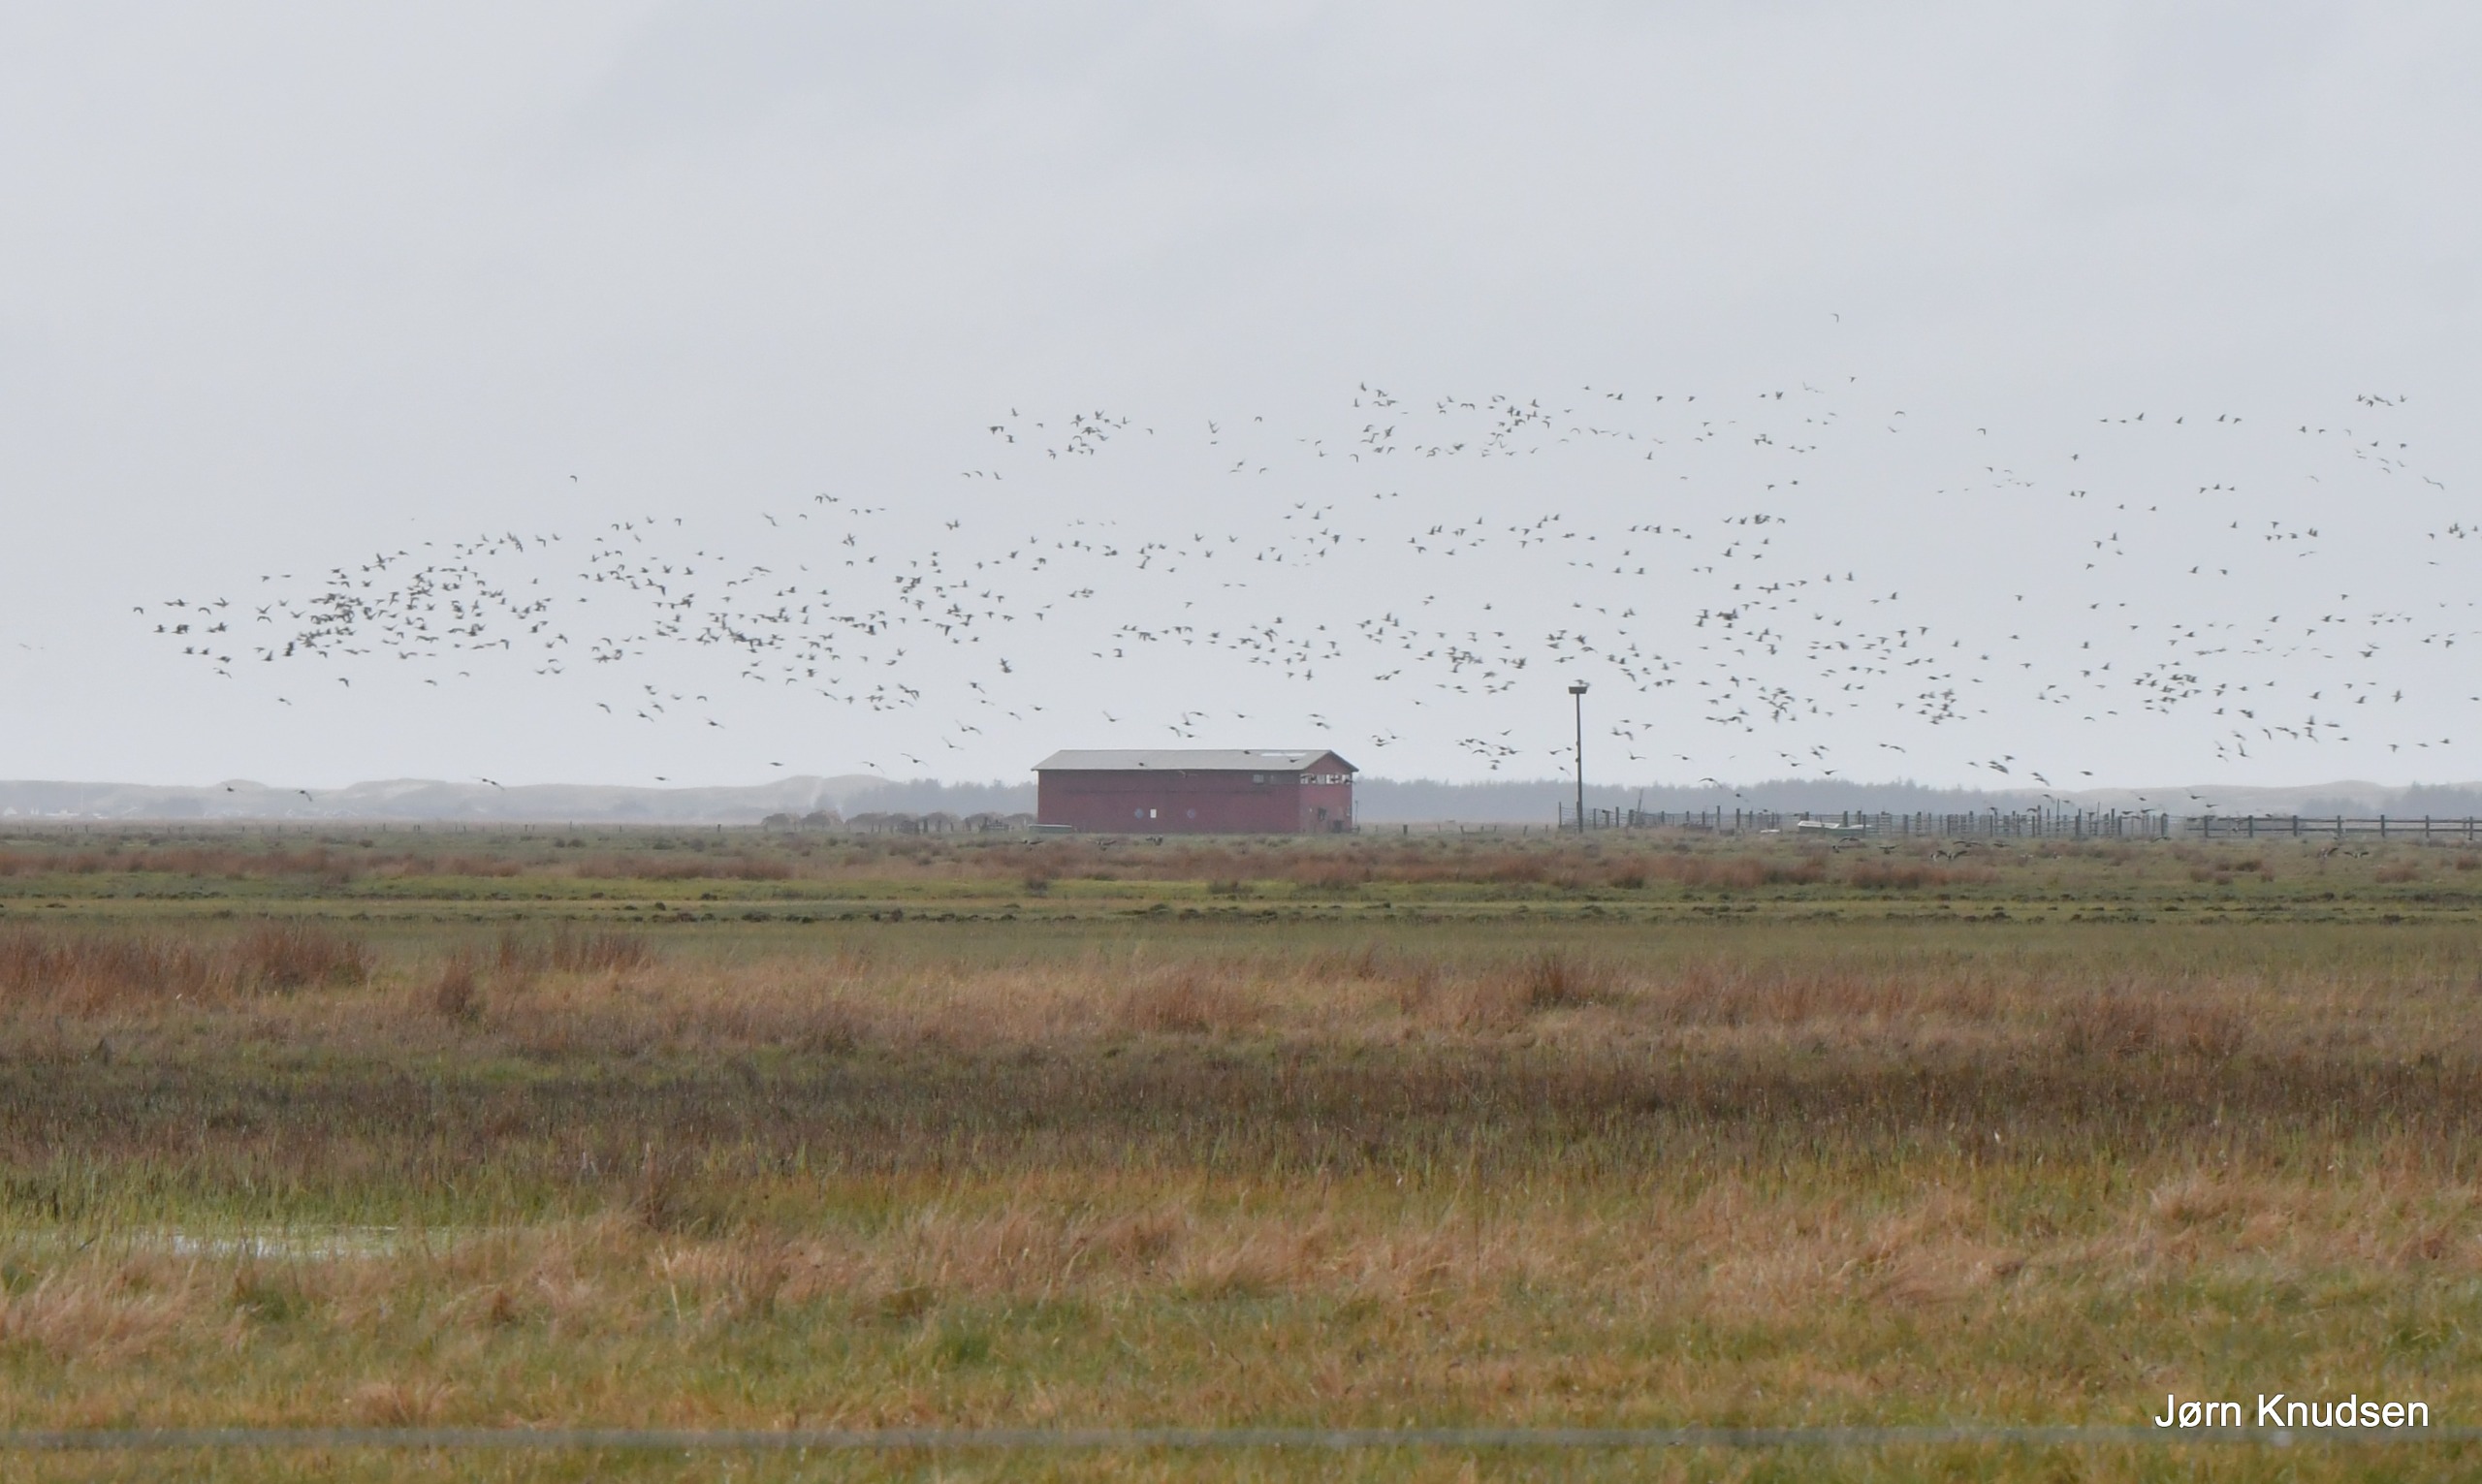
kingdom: Animalia
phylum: Chordata
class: Aves
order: Anseriformes
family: Anatidae
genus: Branta
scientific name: Branta leucopsis
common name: Bramgås
